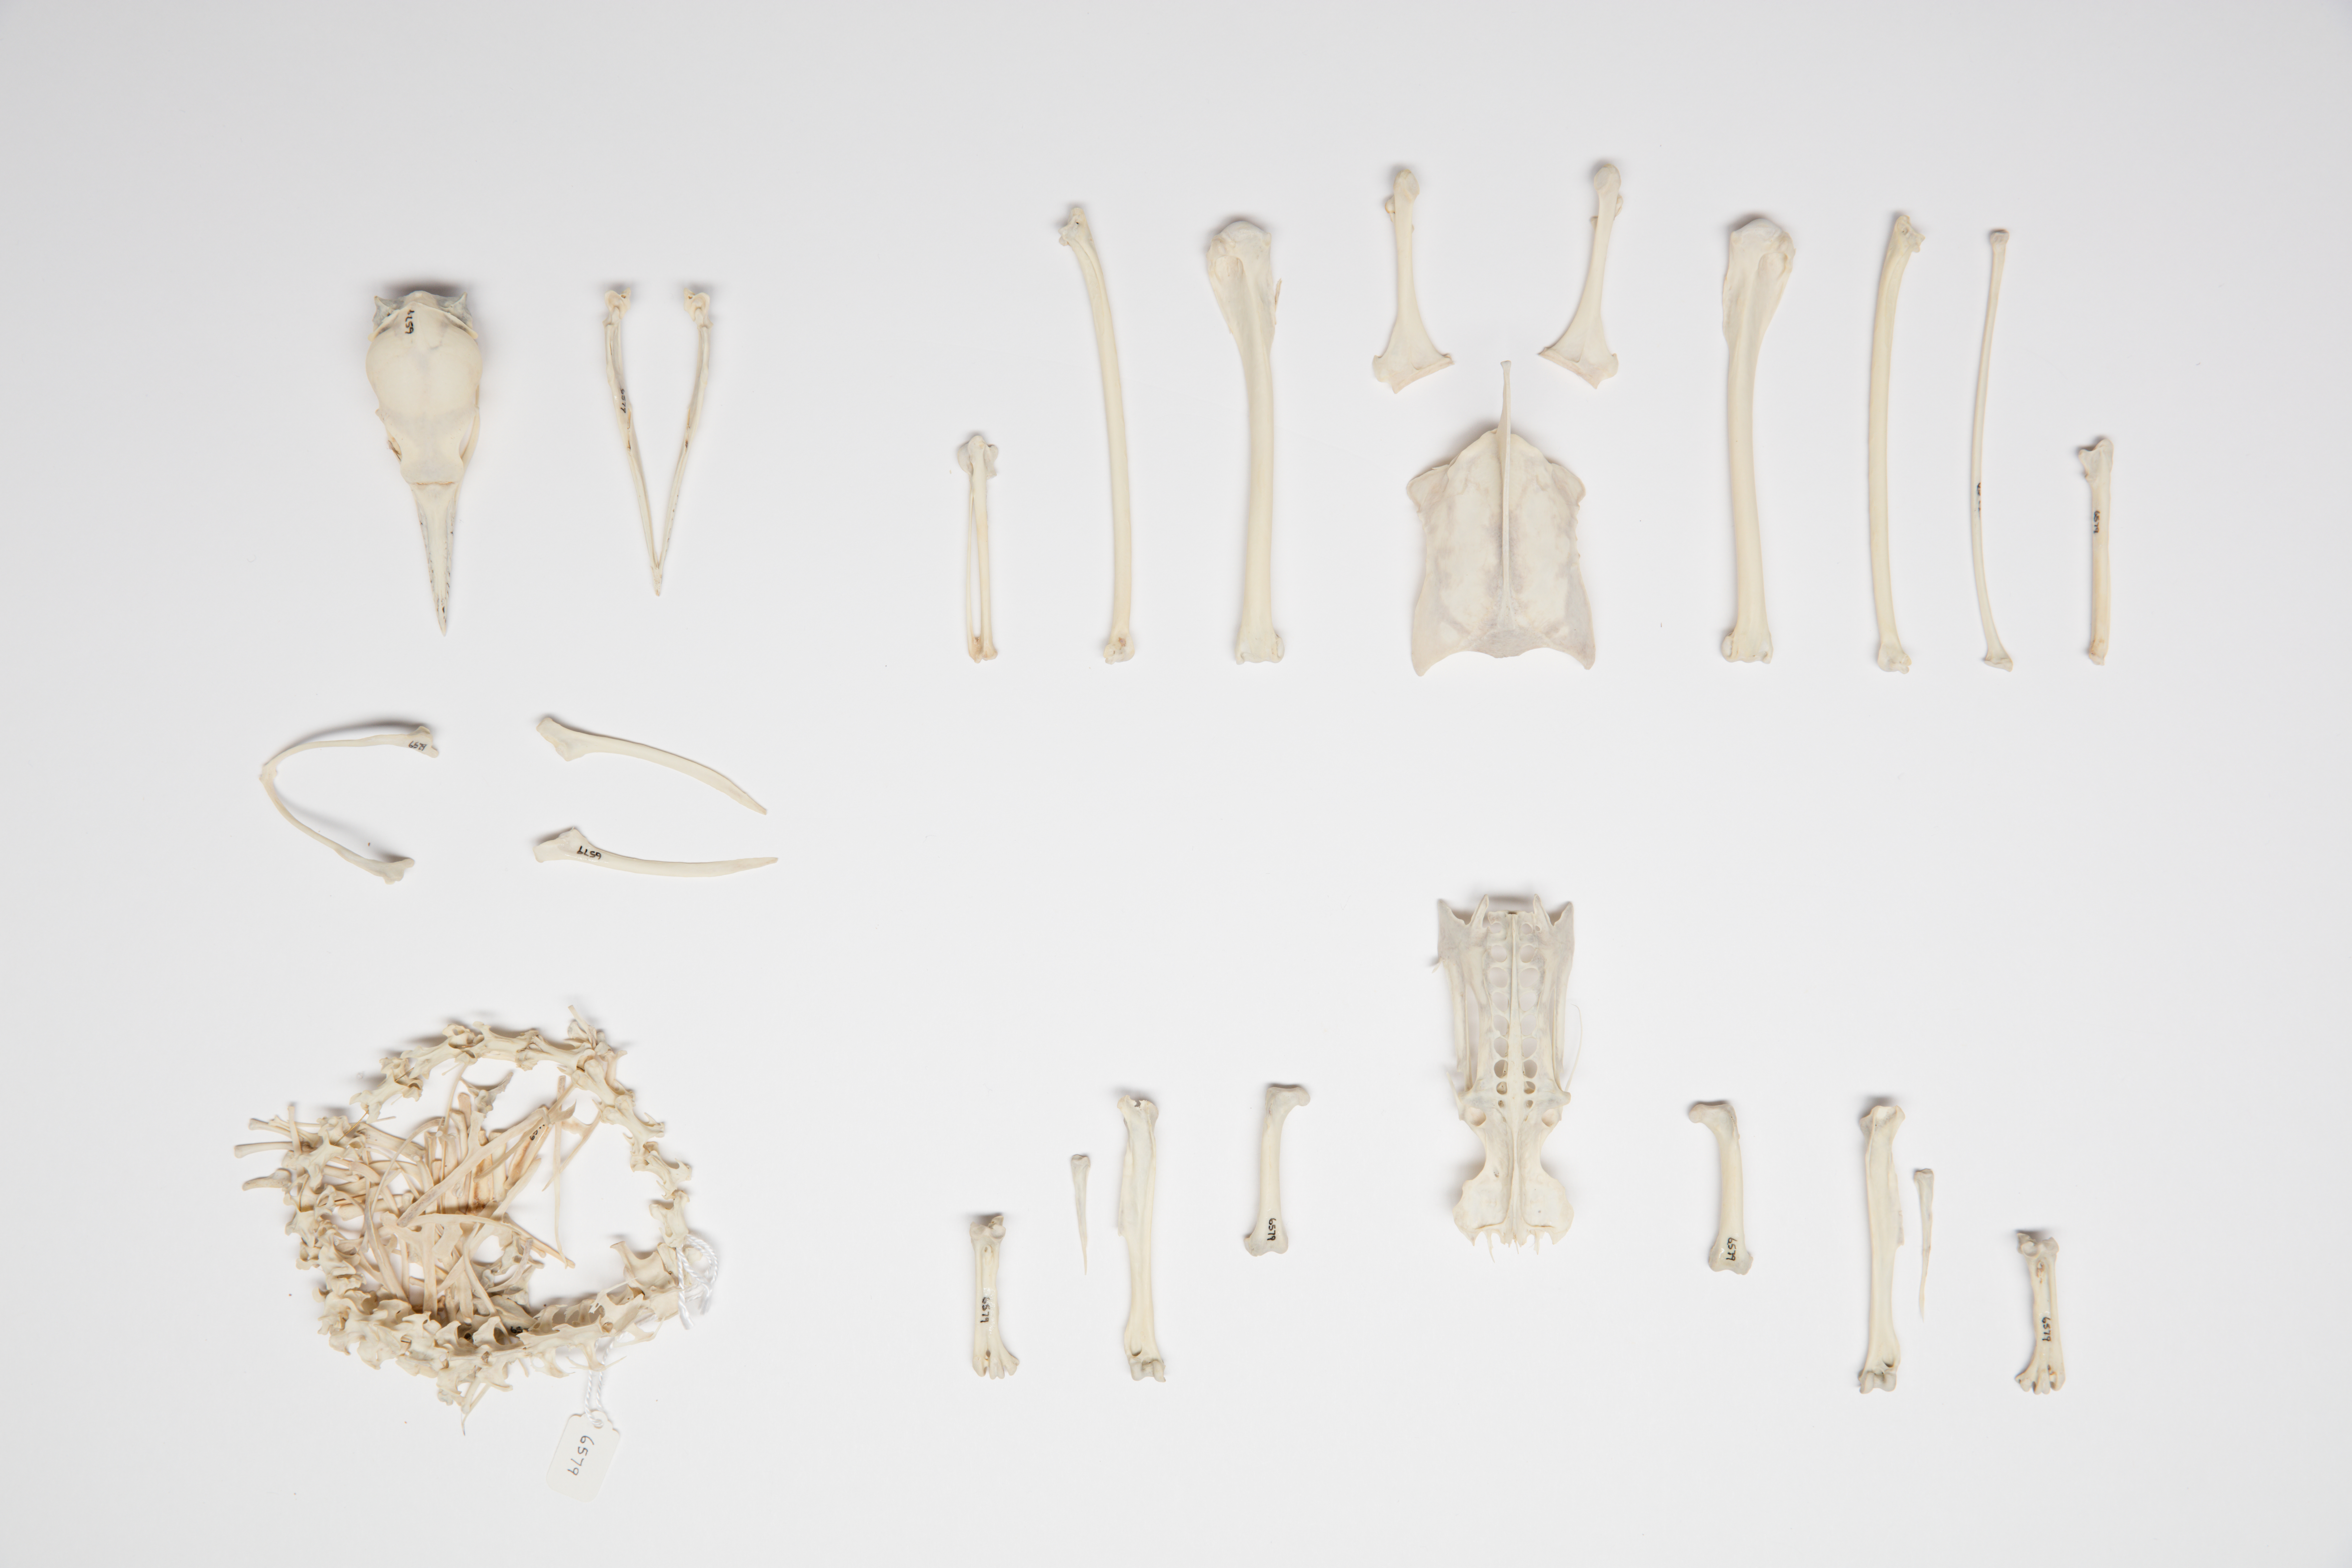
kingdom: Animalia
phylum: Chordata
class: Aves
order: Suliformes
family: Phalacrocoracidae
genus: Microcarbo
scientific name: Microcarbo melanoleucos
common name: Little pied cormorant
